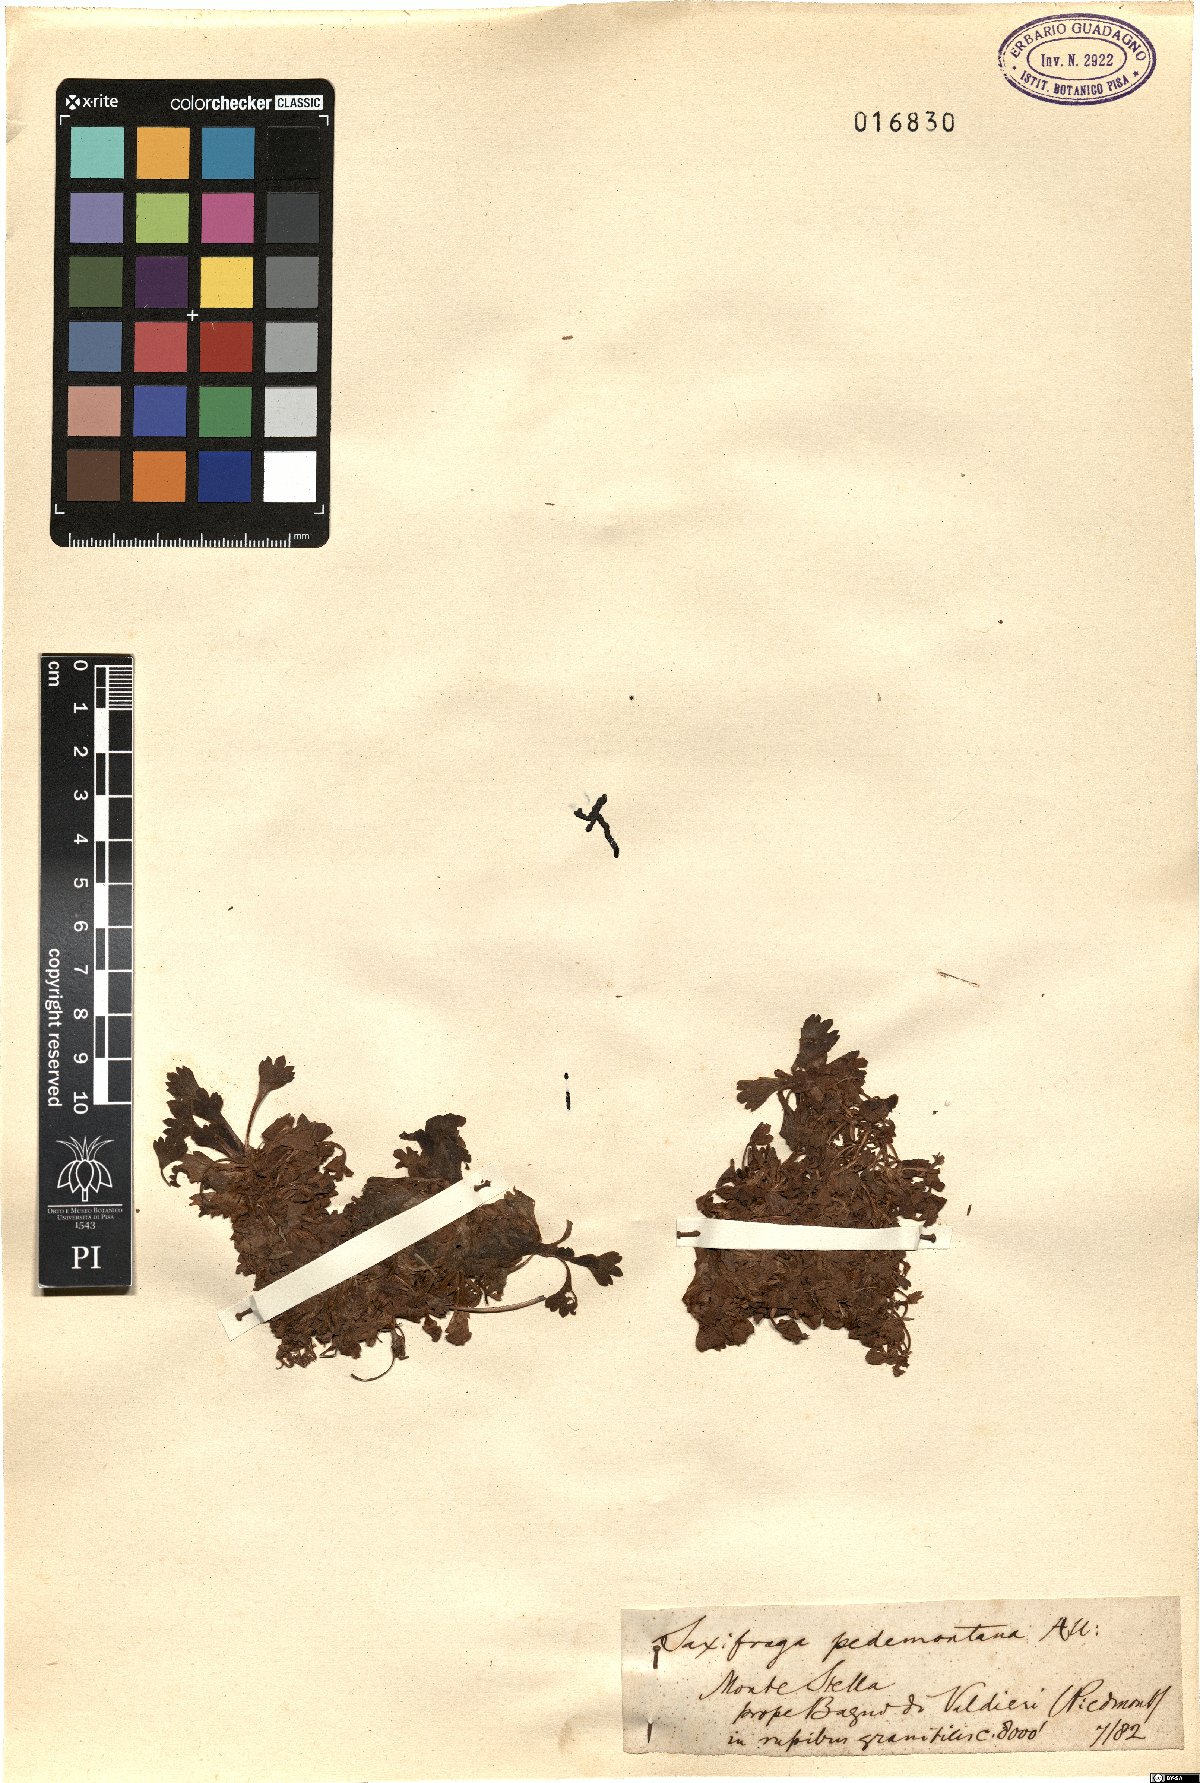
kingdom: Plantae
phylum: Tracheophyta
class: Magnoliopsida
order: Saxifragales
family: Saxifragaceae
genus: Saxifraga
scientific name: Saxifraga pedemontana
